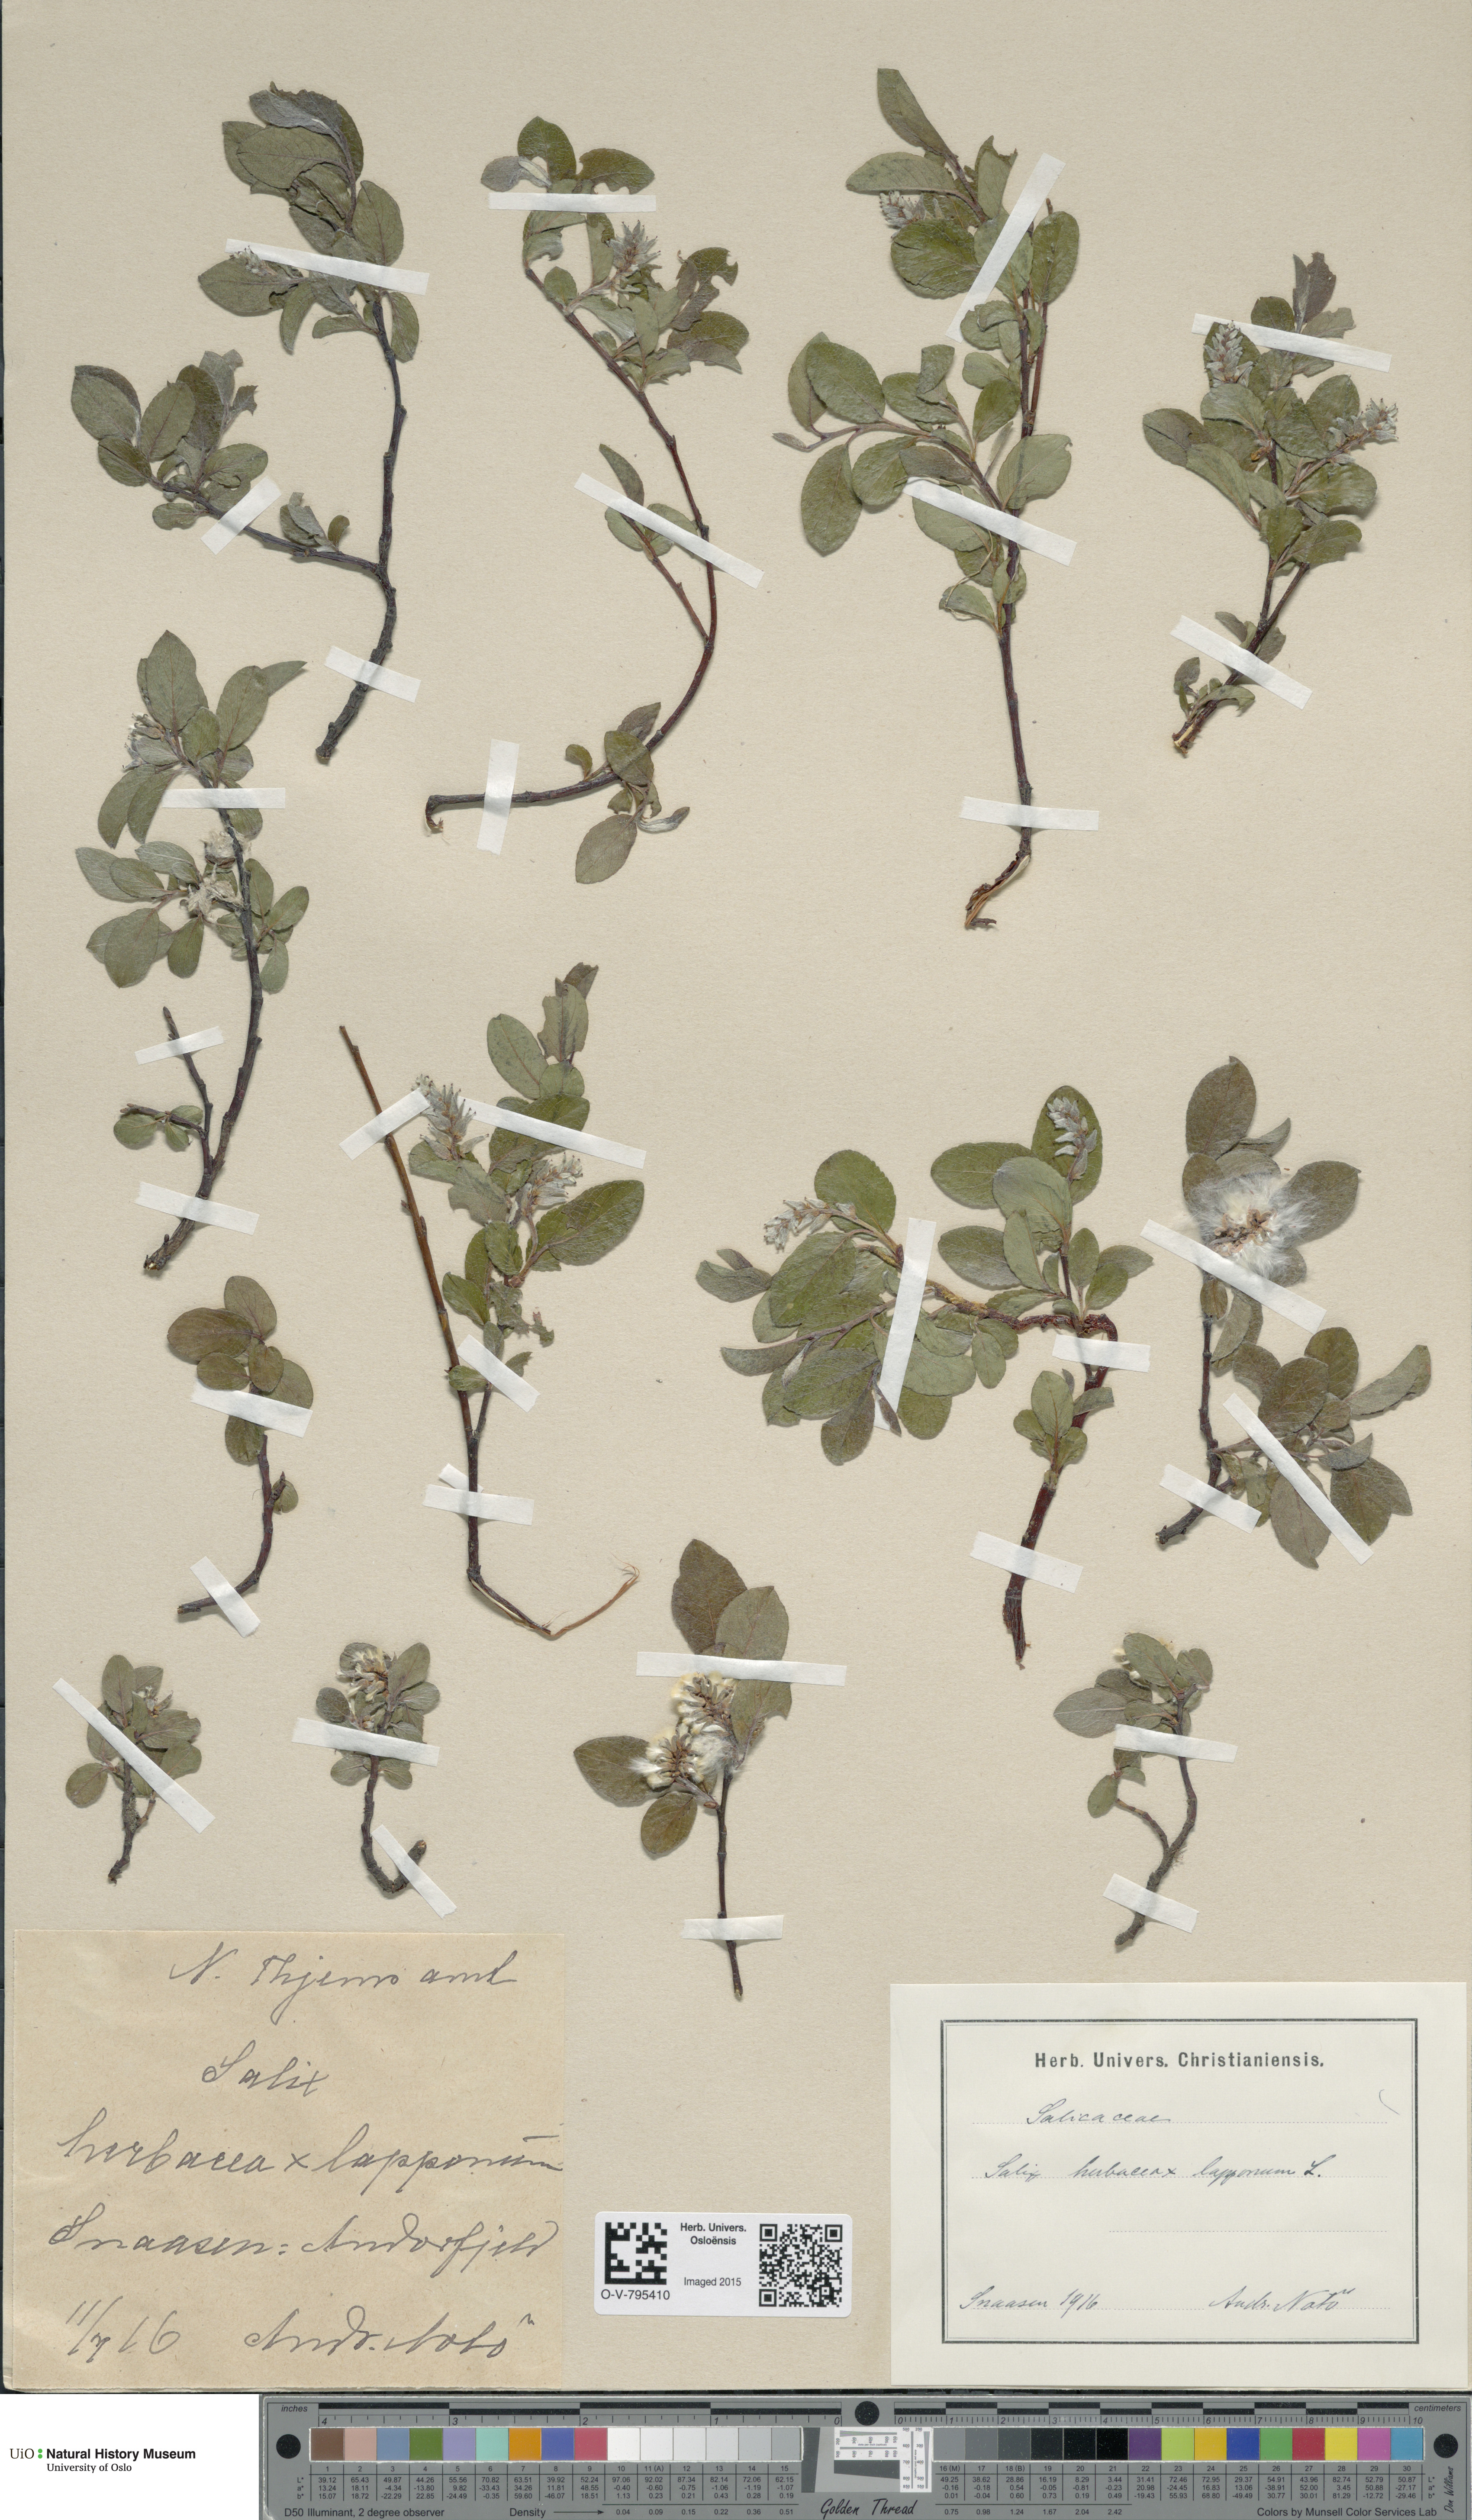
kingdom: Plantae
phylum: Tracheophyta
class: Magnoliopsida
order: Malpighiales
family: Salicaceae
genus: Salix
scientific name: Salix
